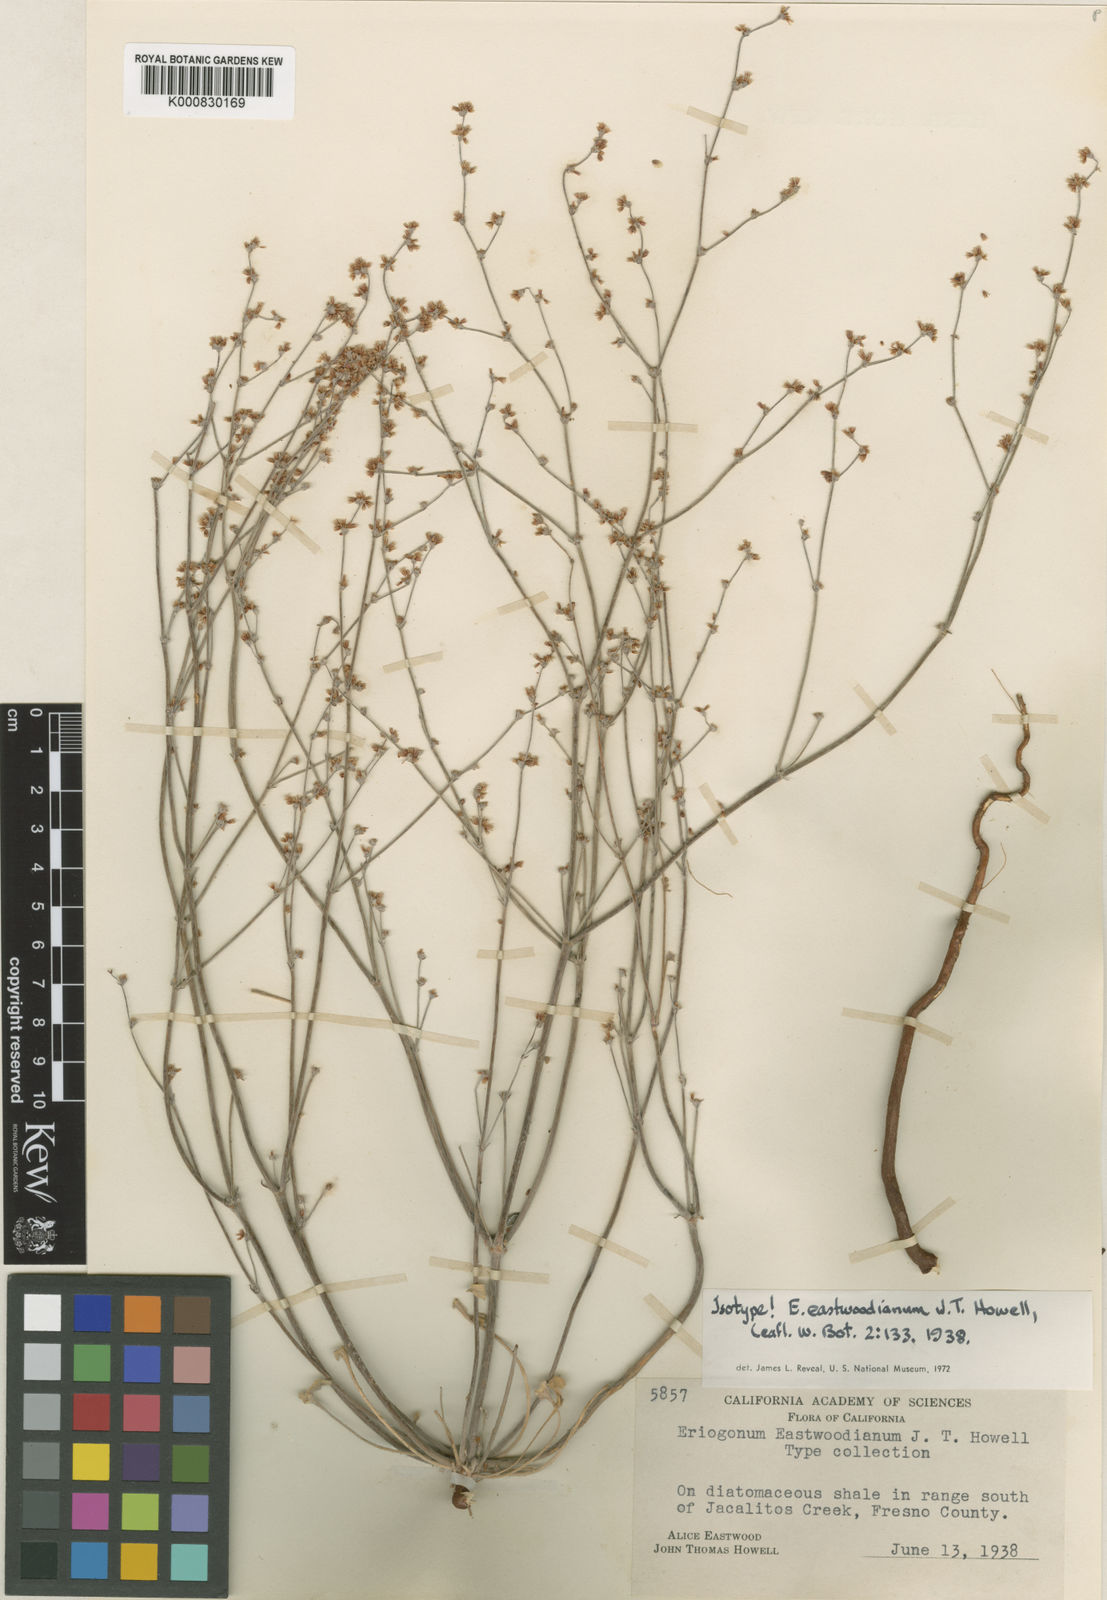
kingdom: Plantae
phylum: Tracheophyta
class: Magnoliopsida
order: Caryophyllales
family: Polygonaceae
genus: Eriogonum
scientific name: Eriogonum eastwoodianum
